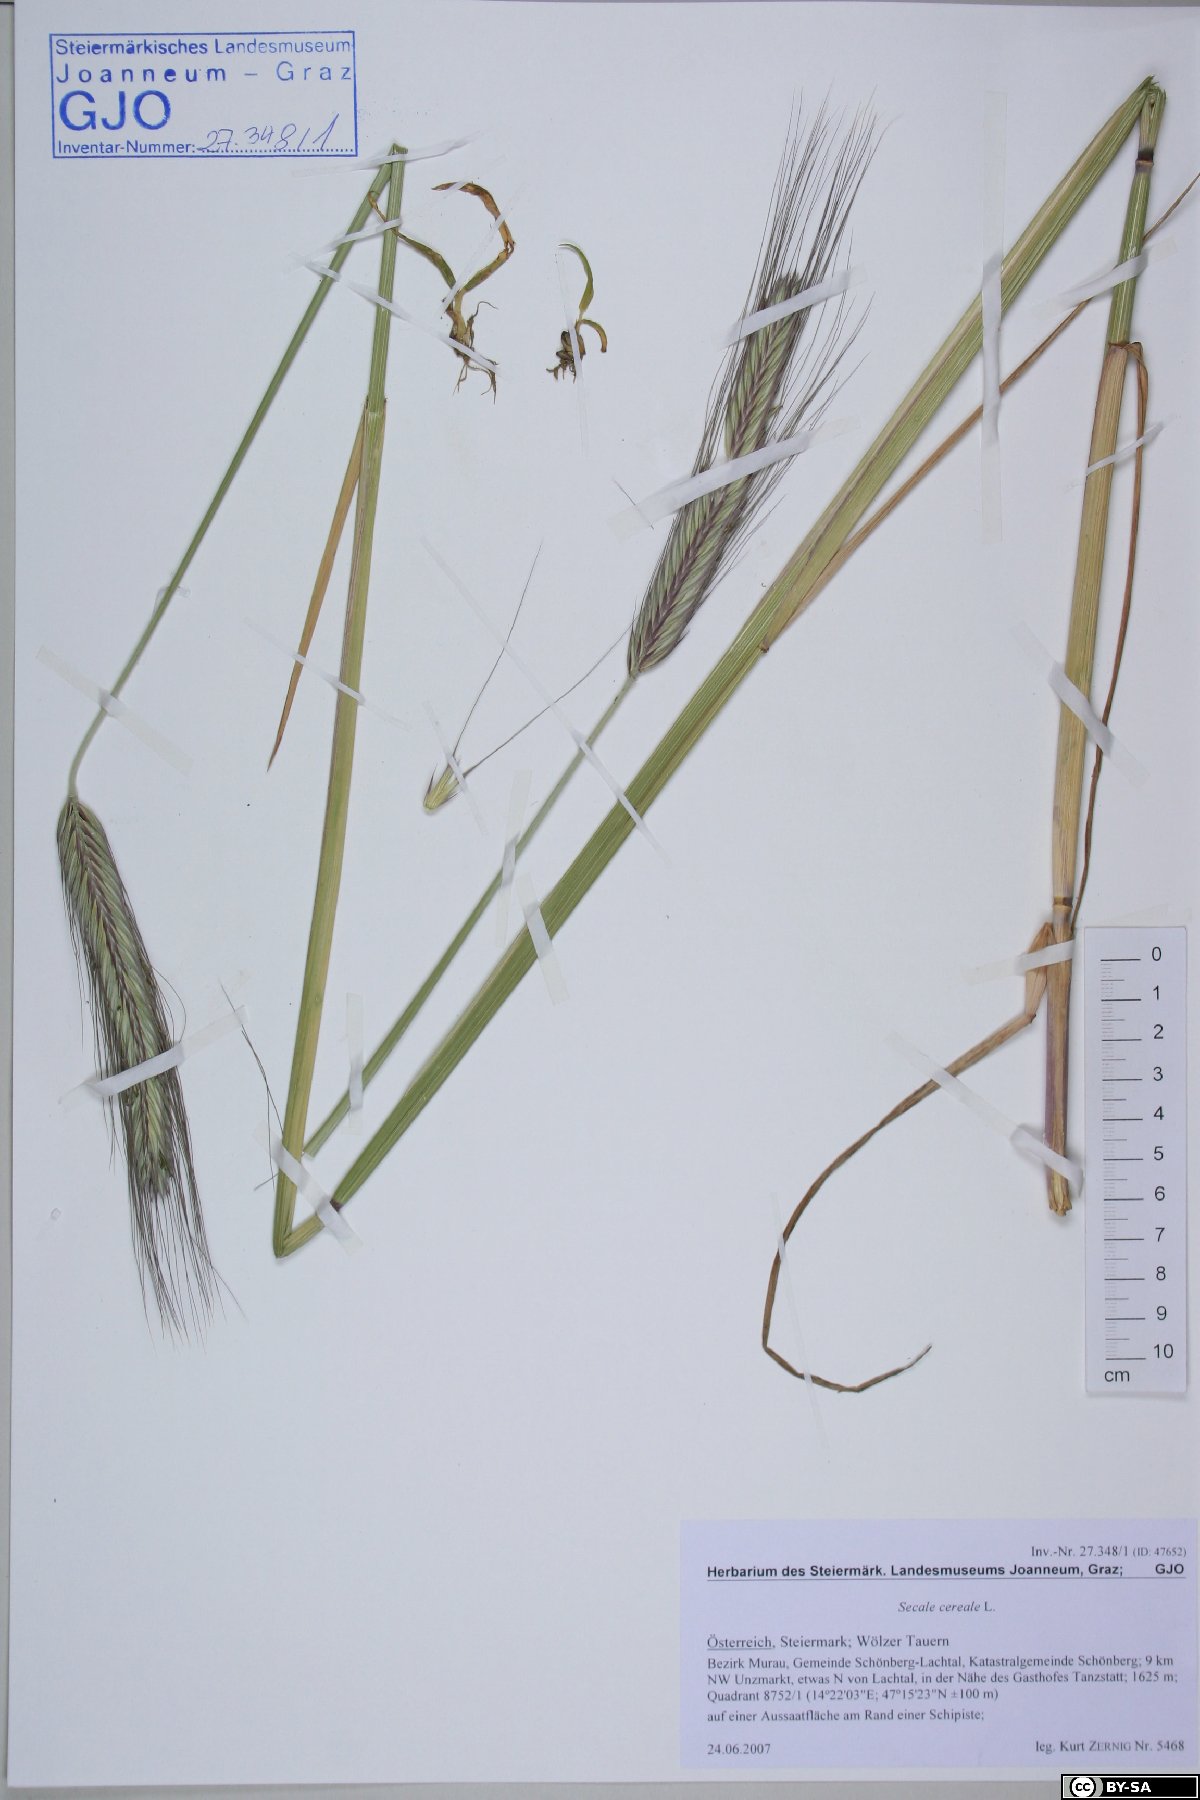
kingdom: Plantae
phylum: Tracheophyta
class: Liliopsida
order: Poales
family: Poaceae
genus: Secale
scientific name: Secale cereale
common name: Rye
